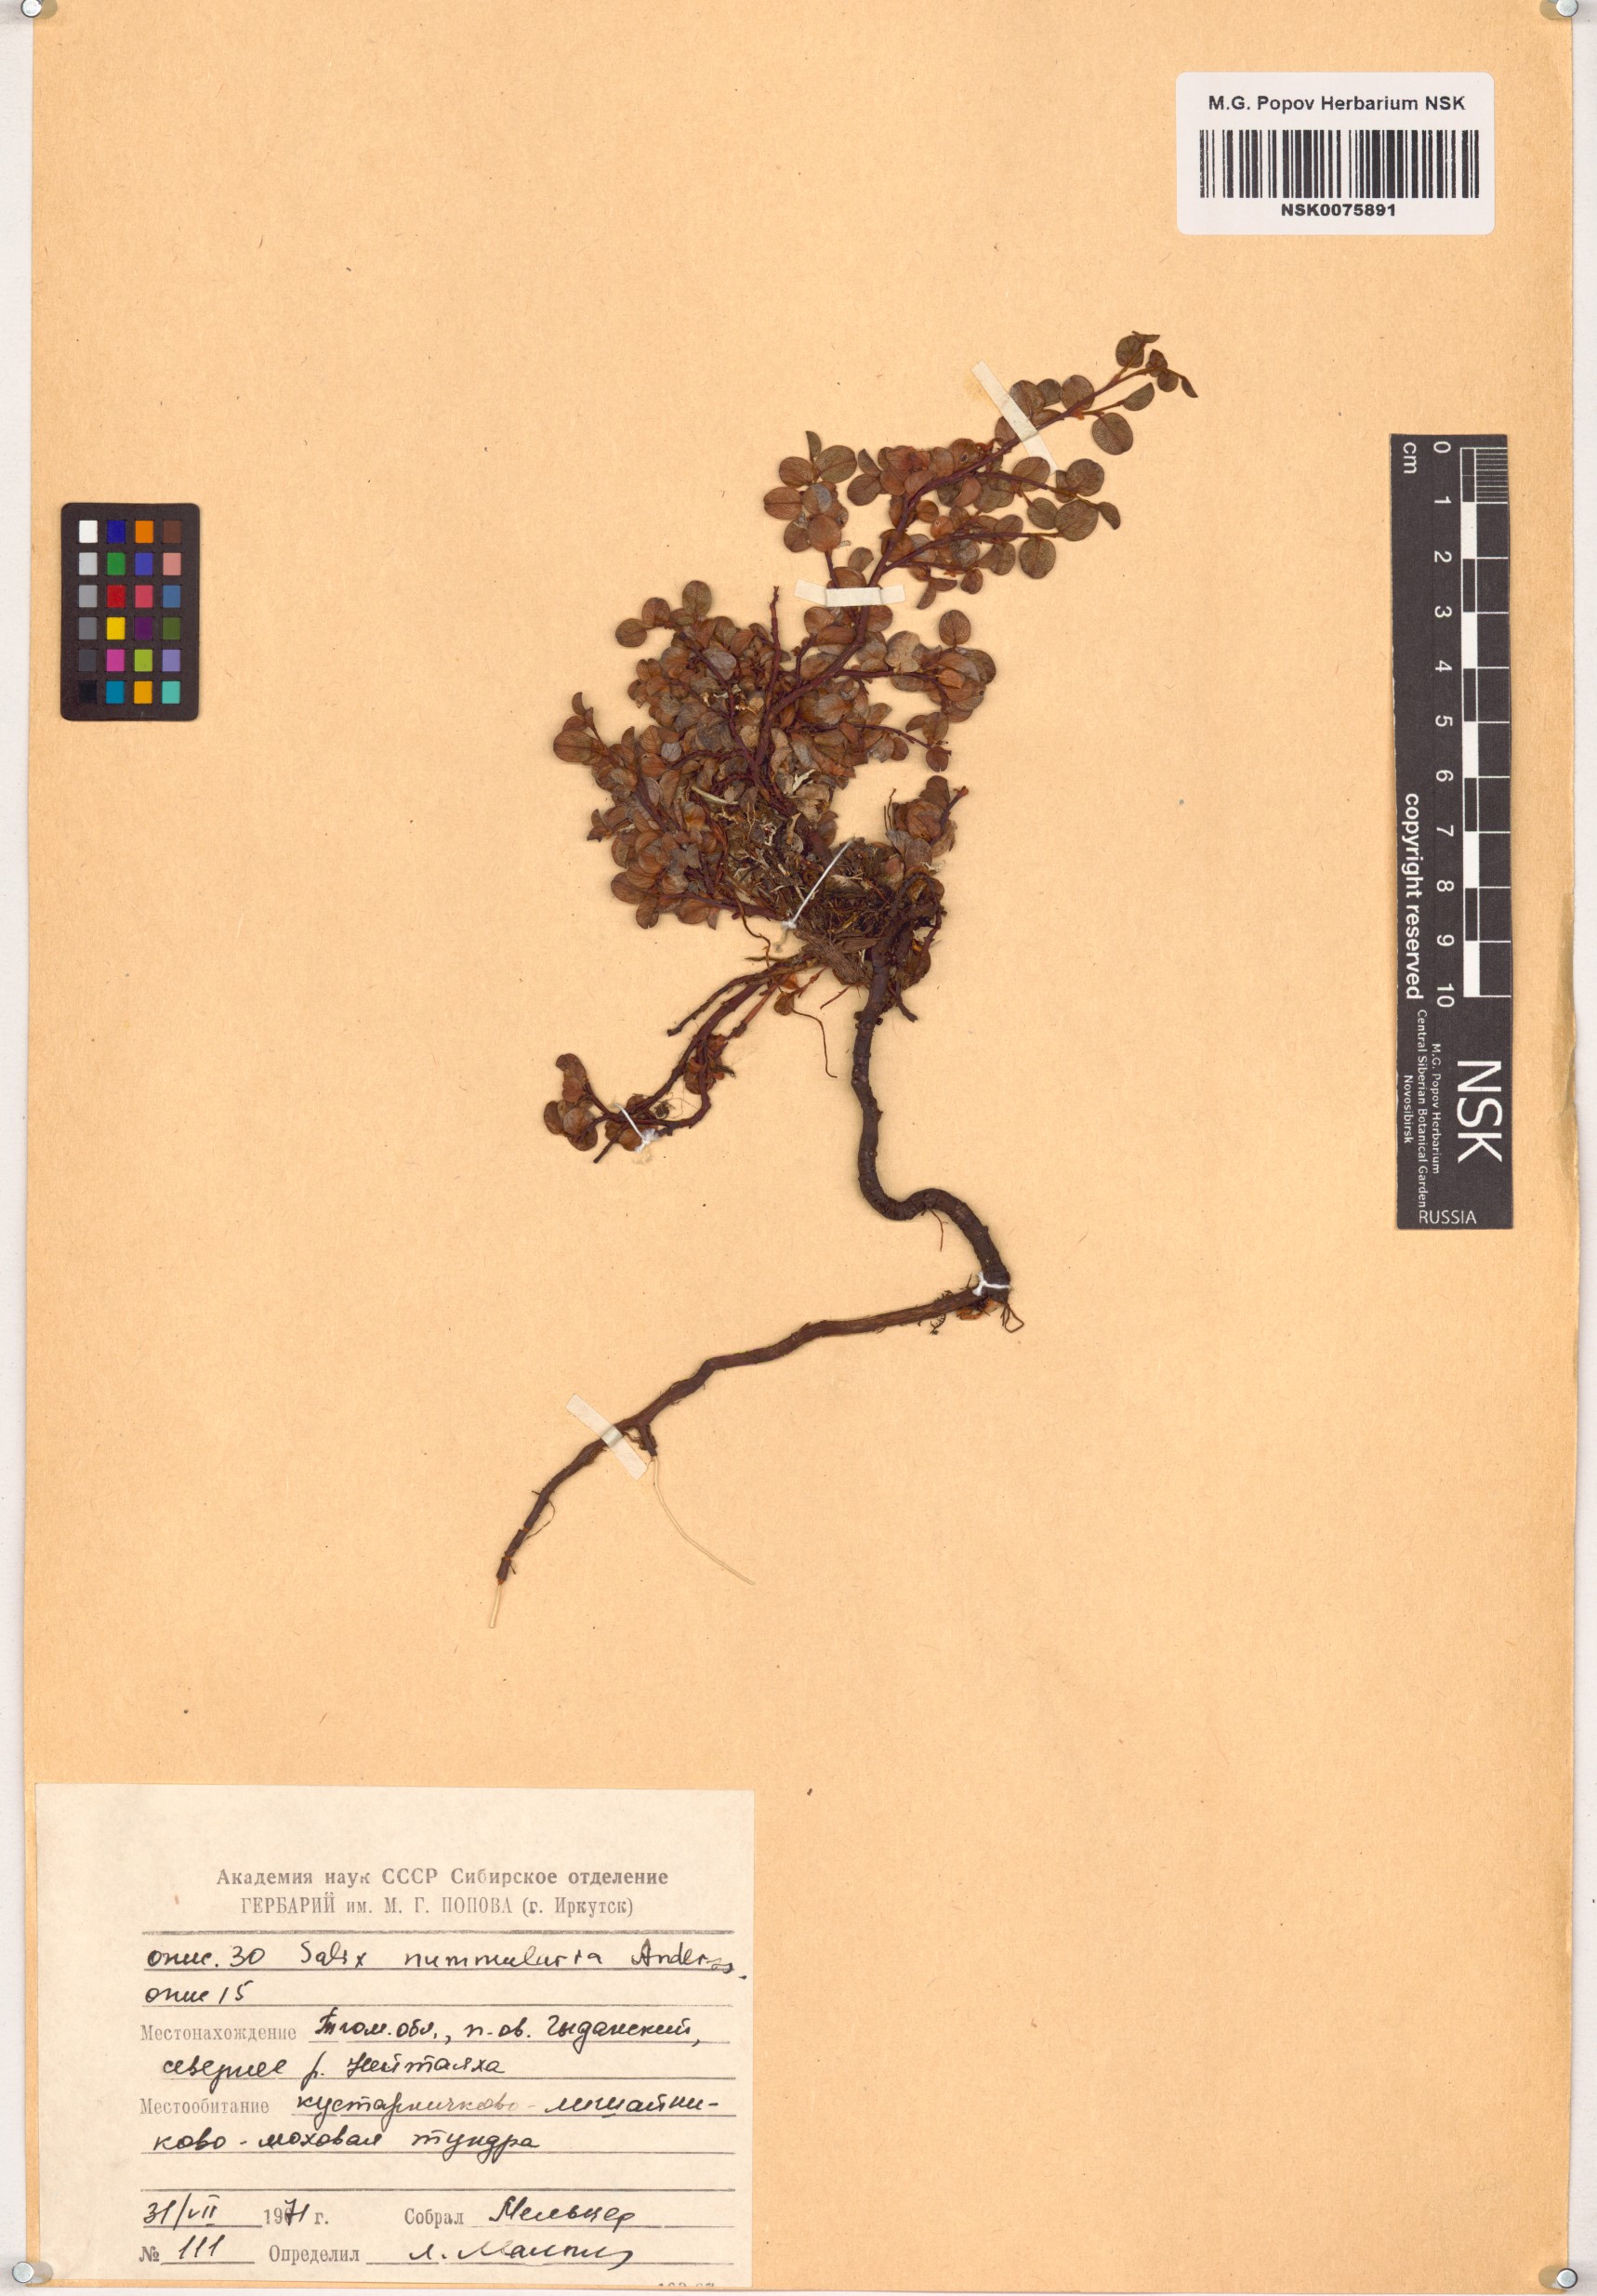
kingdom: Plantae
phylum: Tracheophyta
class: Magnoliopsida
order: Malpighiales
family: Salicaceae
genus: Salix
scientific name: Salix nummularia
